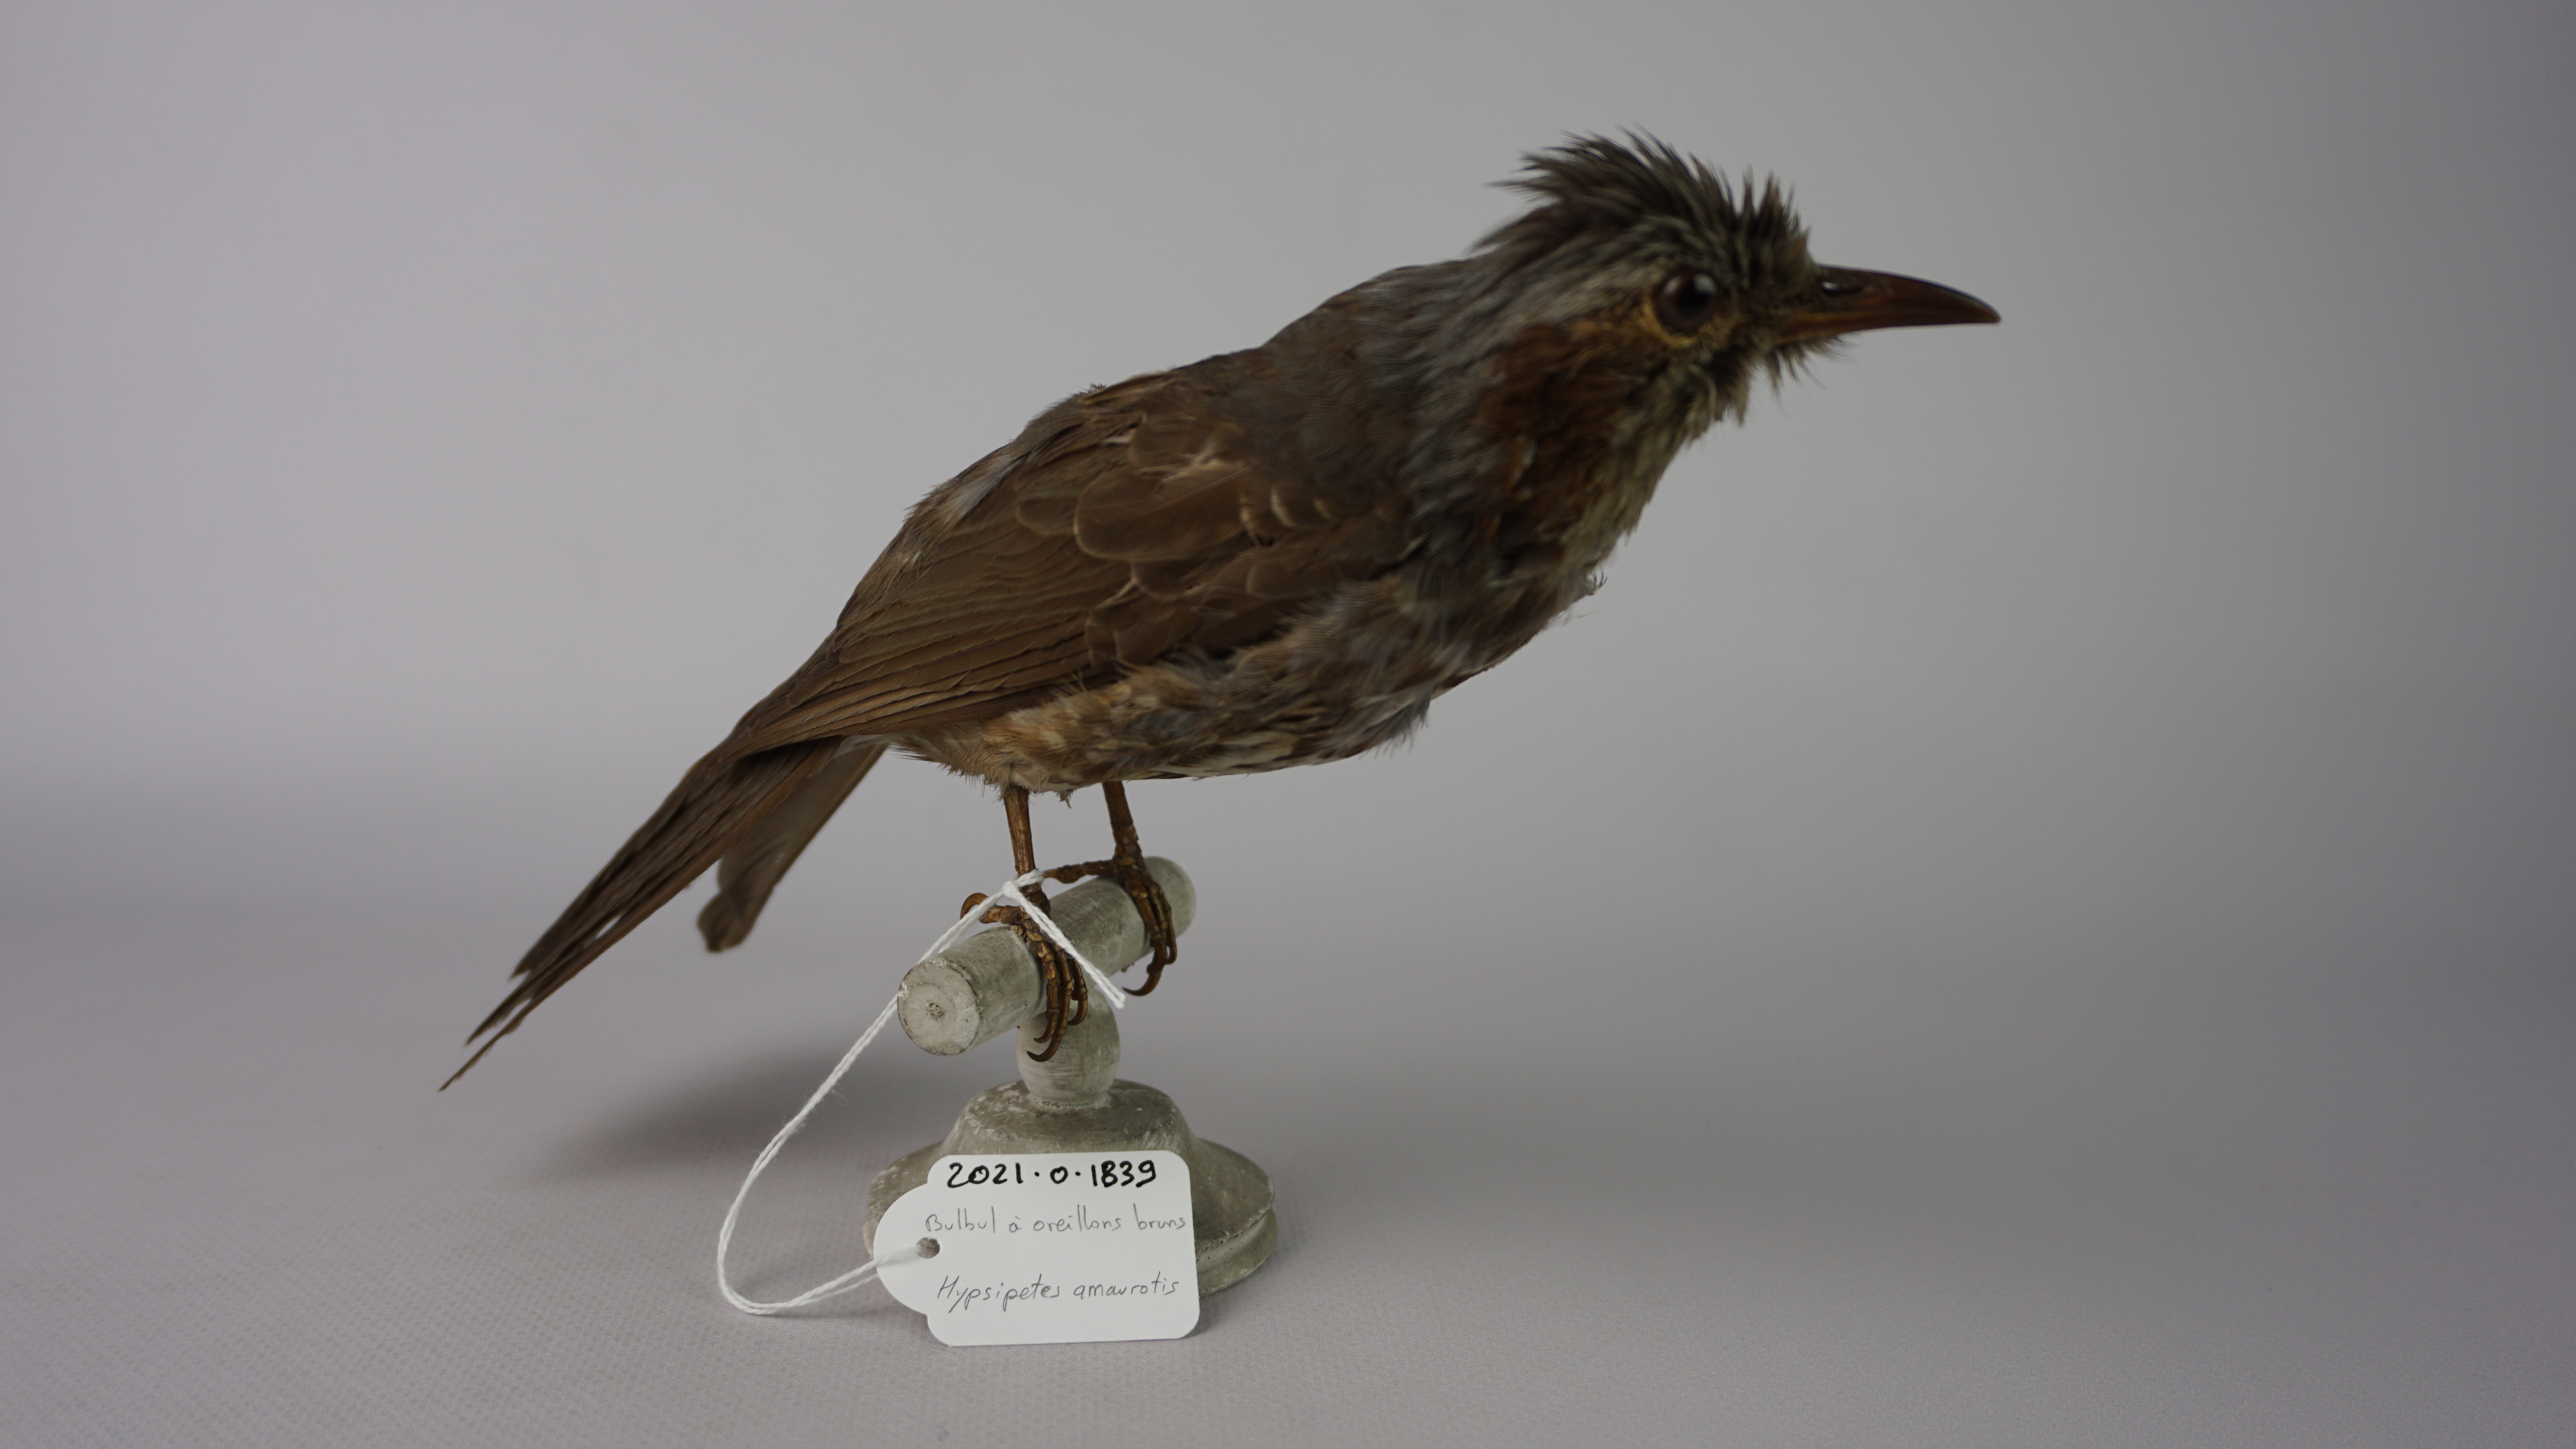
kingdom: Animalia
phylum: Chordata
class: Aves
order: Passeriformes
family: Pycnonotidae
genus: Hypsipetes
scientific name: Hypsipetes amaurotis
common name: Brown-eared bulbul
